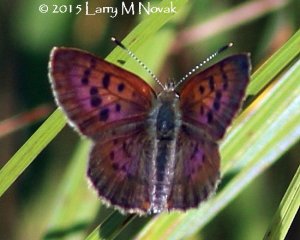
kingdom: Animalia
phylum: Arthropoda
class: Insecta
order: Lepidoptera
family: Lycaenidae
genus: Epidemia
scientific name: Epidemia dorcas
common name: Dorcas Copper
